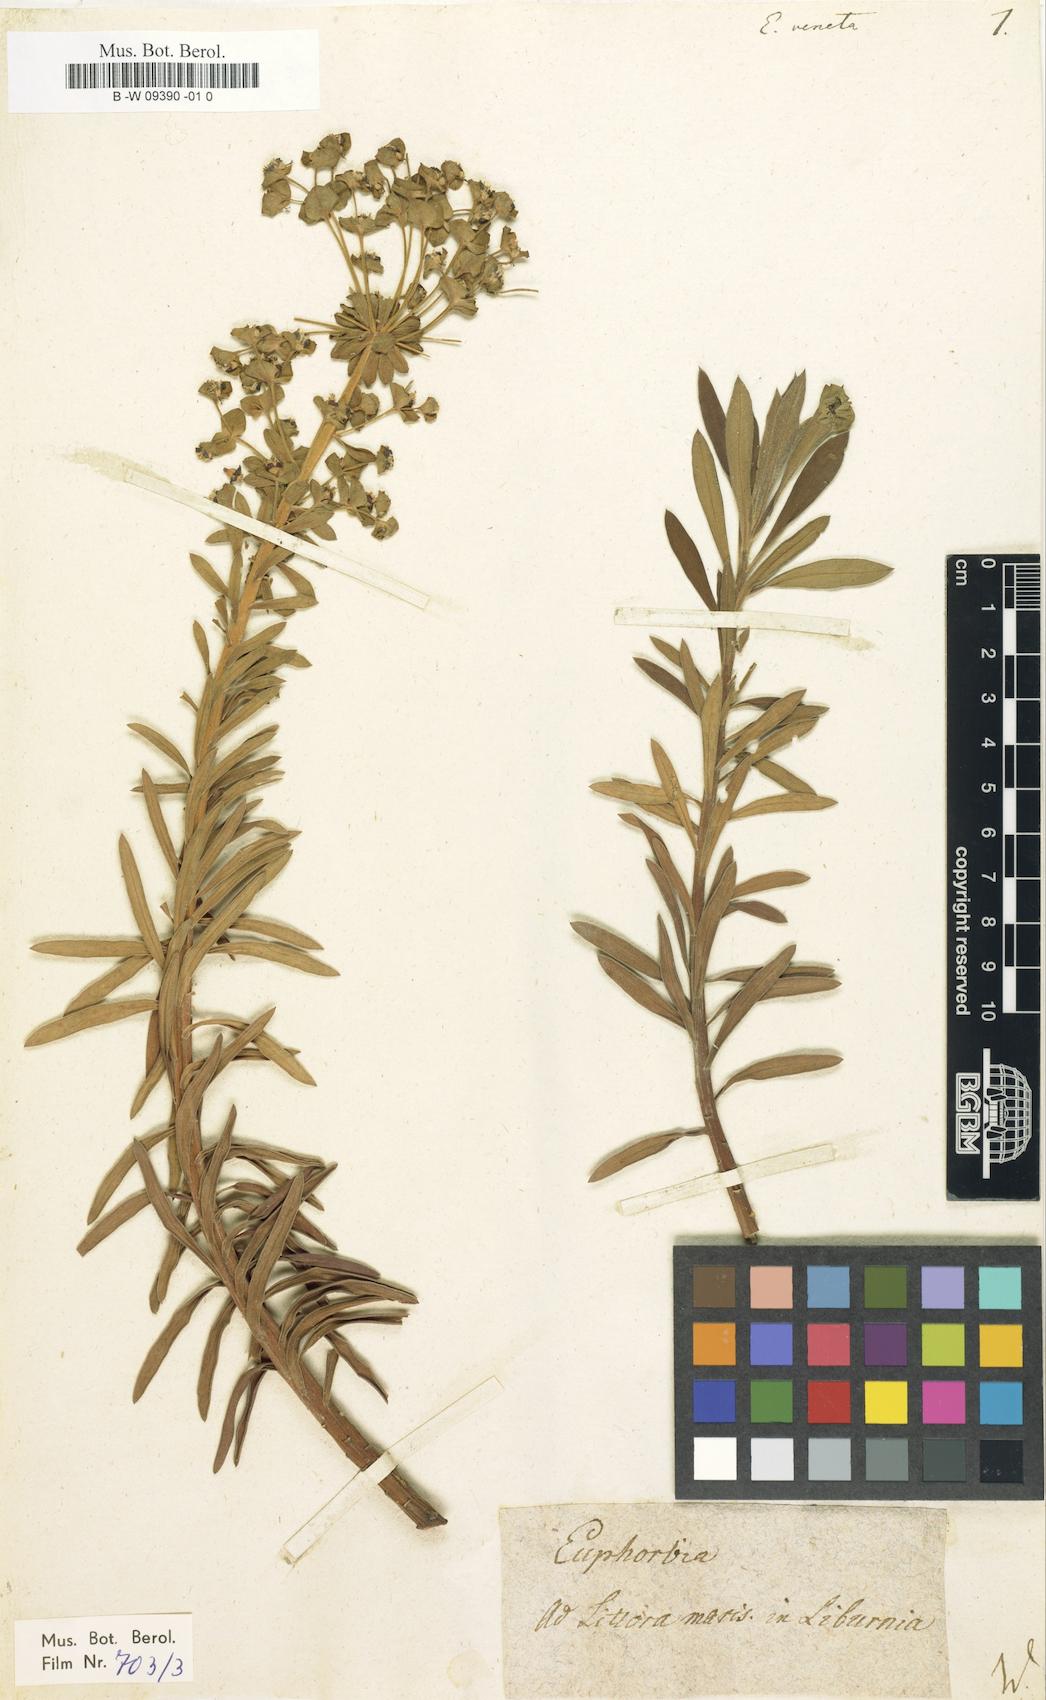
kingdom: Plantae
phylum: Tracheophyta
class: Magnoliopsida
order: Malpighiales
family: Euphorbiaceae
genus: Euphorbia
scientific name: Euphorbia veneta
